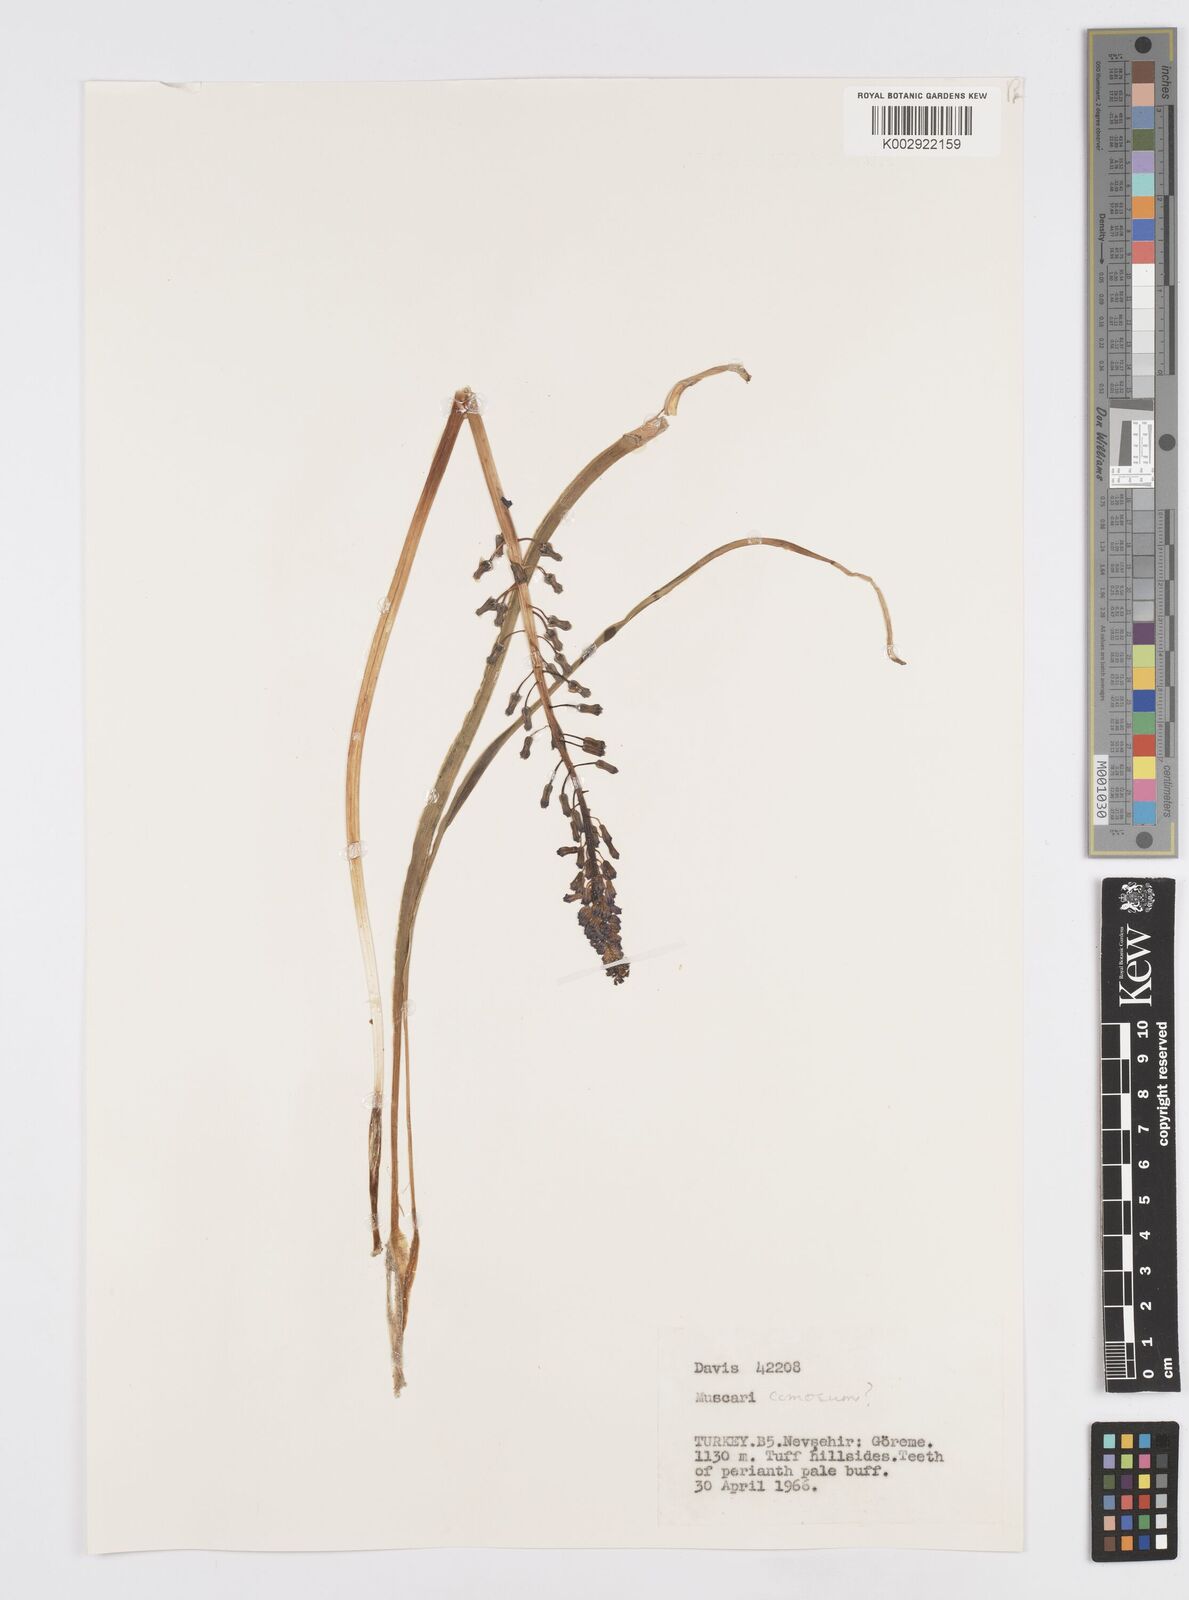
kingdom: Plantae
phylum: Tracheophyta
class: Liliopsida
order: Asparagales
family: Asparagaceae
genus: Muscari
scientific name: Muscari comosum
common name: Tassel hyacinth
